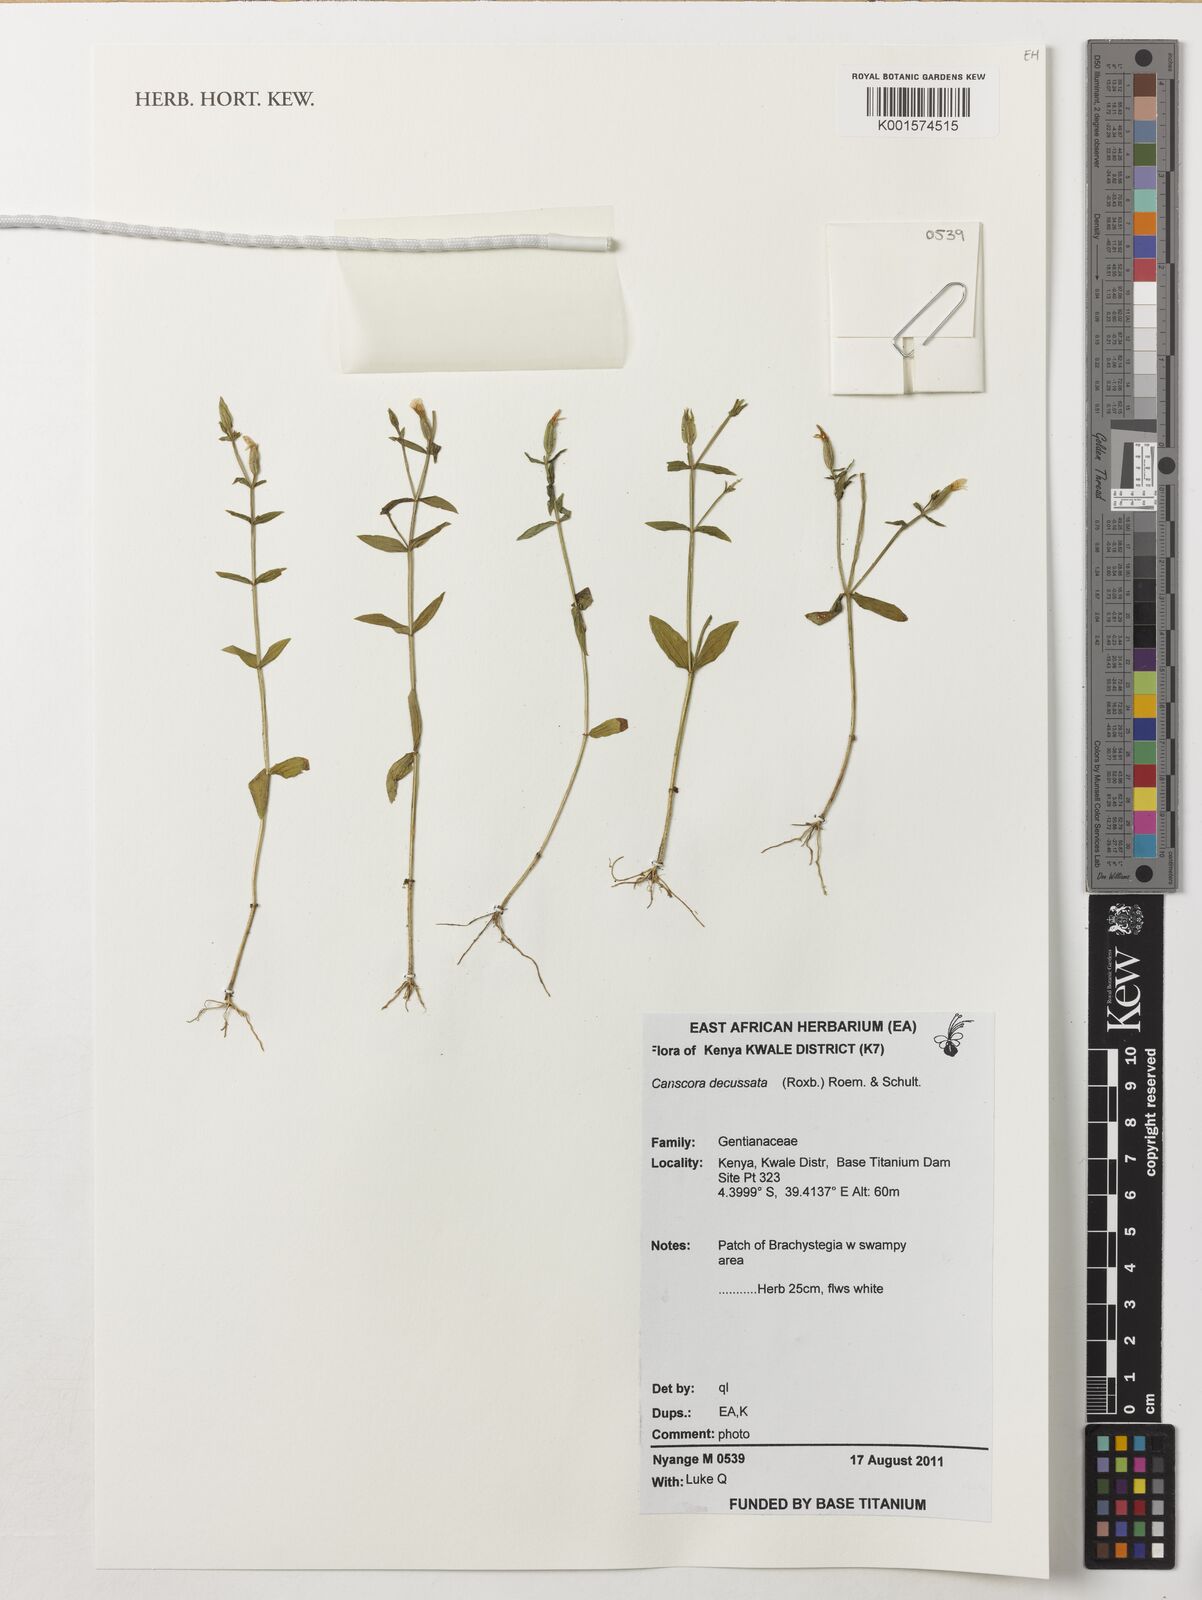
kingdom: Plantae
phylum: Tracheophyta
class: Magnoliopsida
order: Gentianales
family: Gentianaceae
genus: Canscora
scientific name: Canscora alata
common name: Canscora
